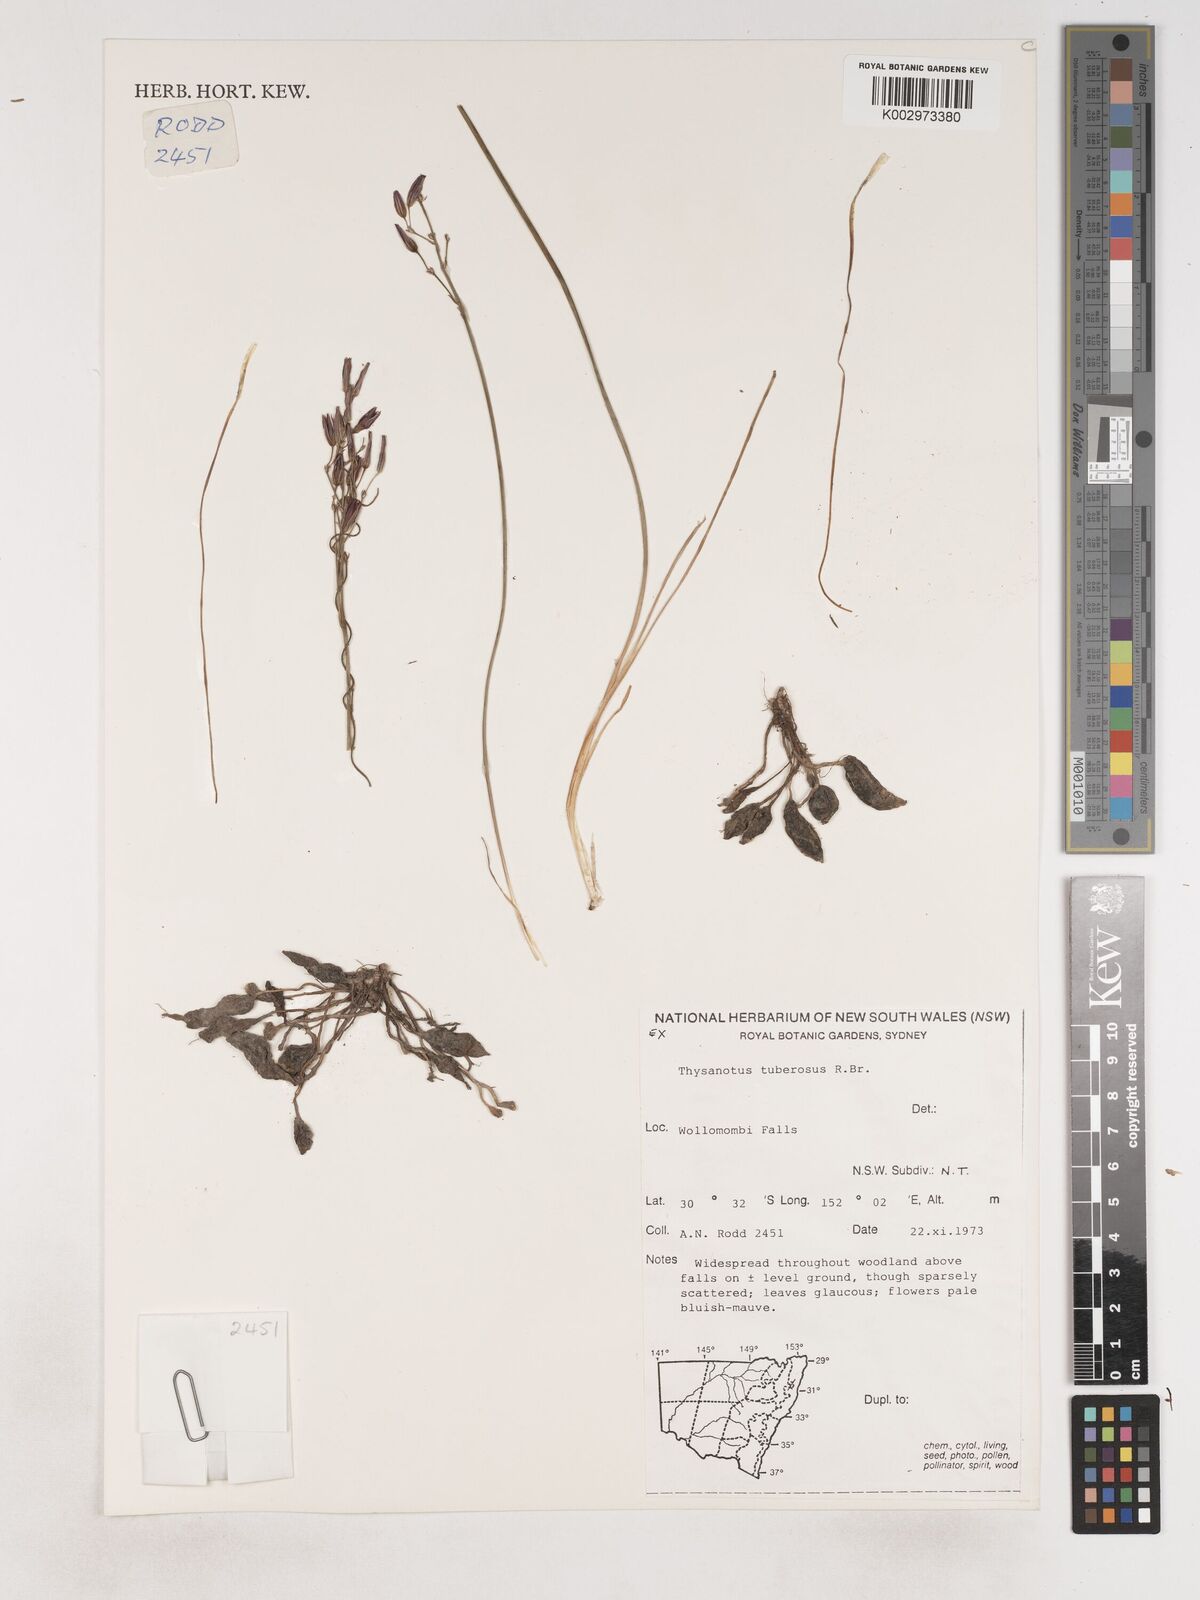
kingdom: Plantae
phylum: Tracheophyta
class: Liliopsida
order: Asparagales
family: Asparagaceae
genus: Thysanotus
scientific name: Thysanotus tuberosus
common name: Common fringed-lily
